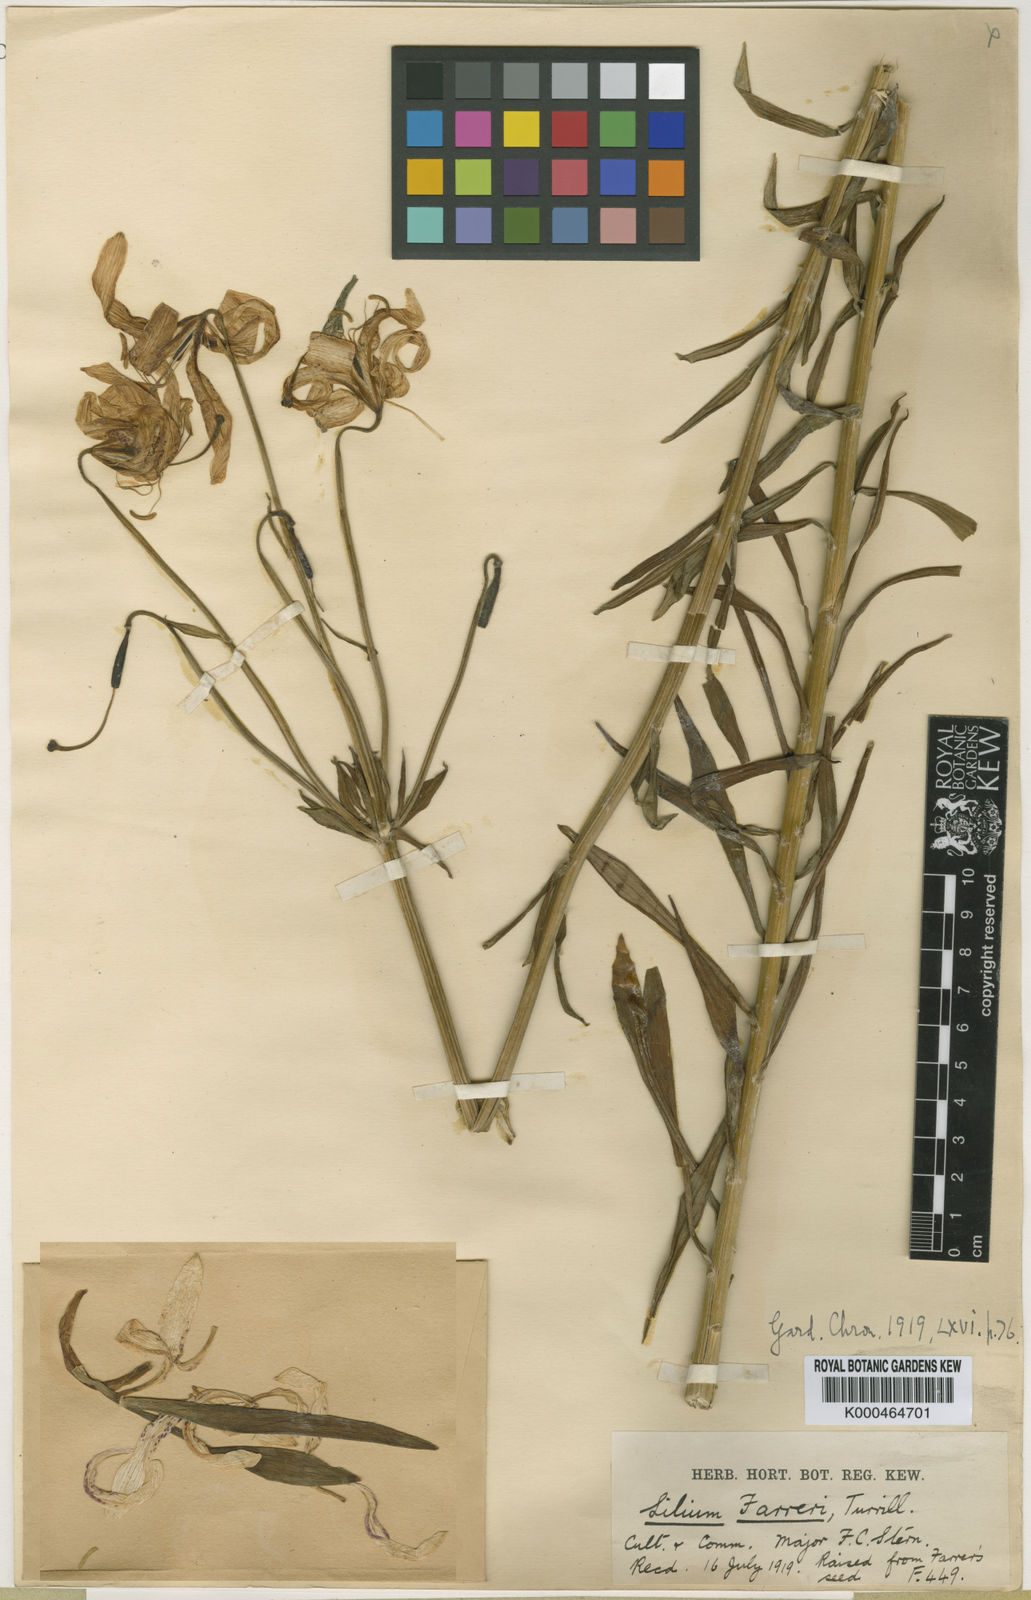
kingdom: Plantae
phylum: Tracheophyta
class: Liliopsida
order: Liliales
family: Liliaceae
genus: Lilium
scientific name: Lilium duchartrei
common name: Duchartre lily
